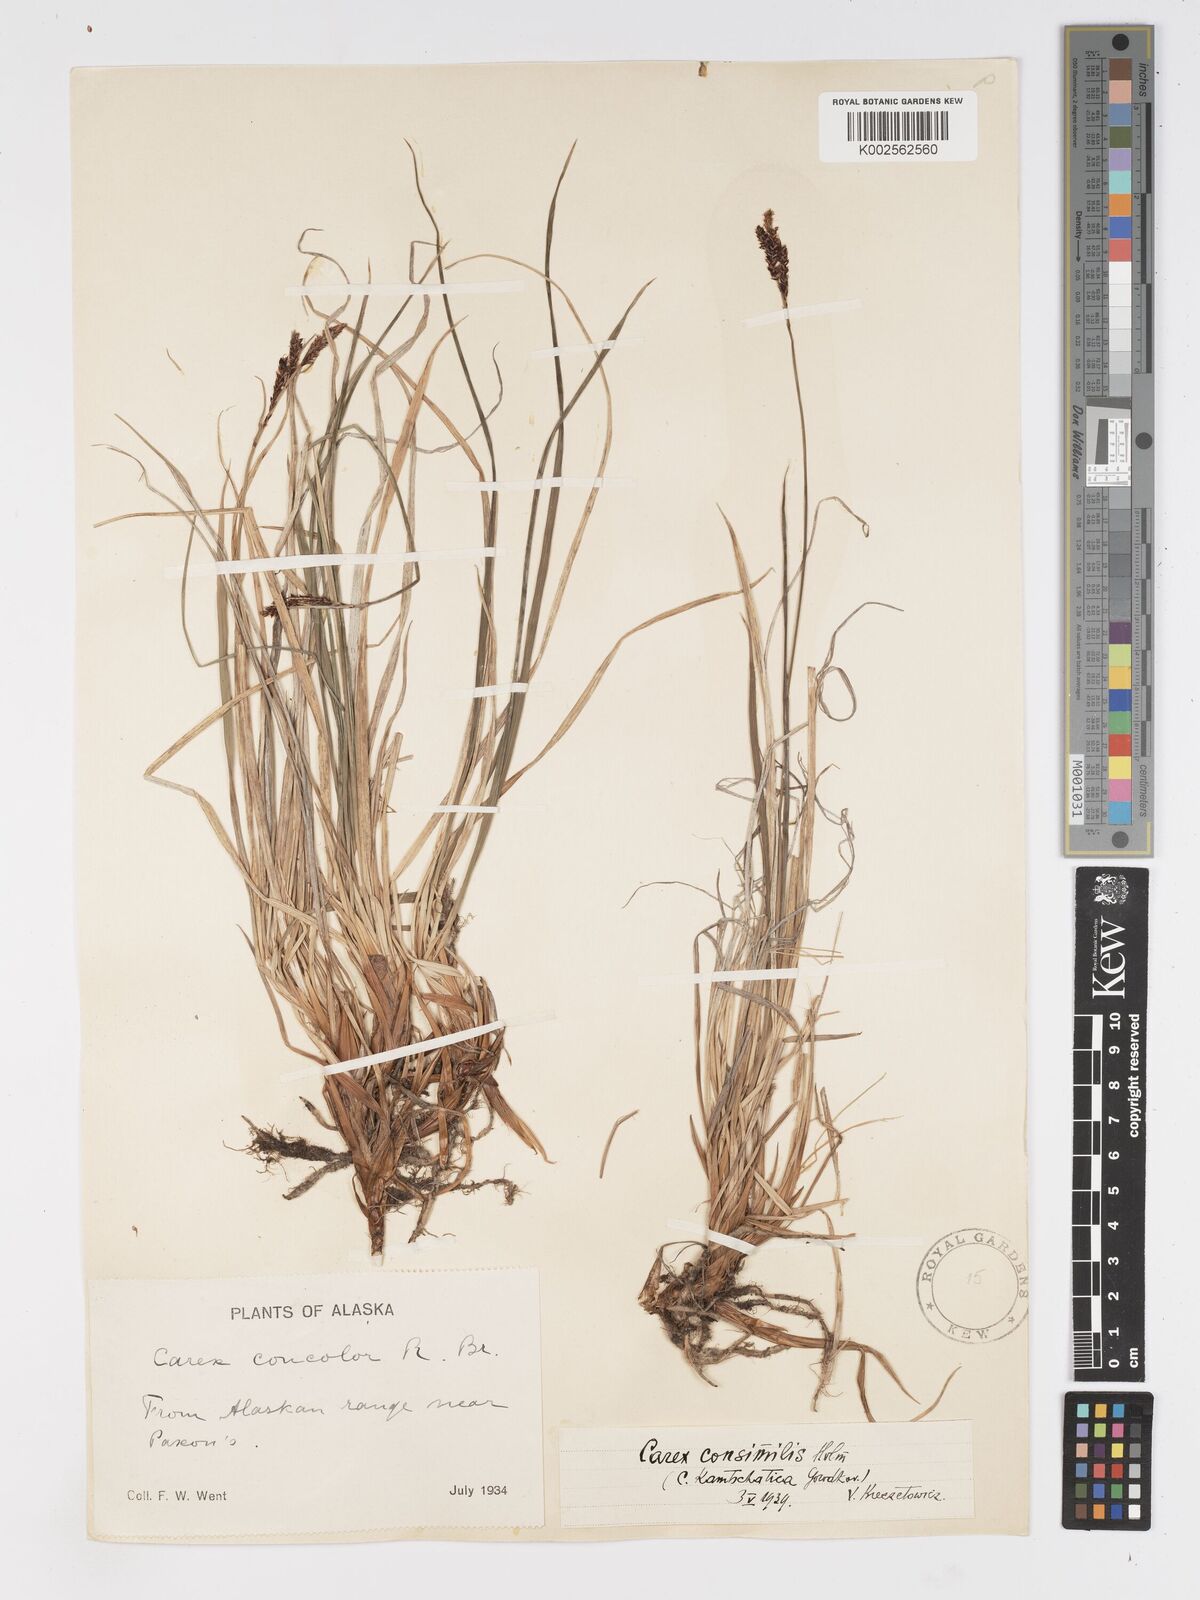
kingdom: Plantae
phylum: Tracheophyta
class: Liliopsida
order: Poales
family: Cyperaceae
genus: Carex
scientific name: Carex bigelowii
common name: Stiff sedge
